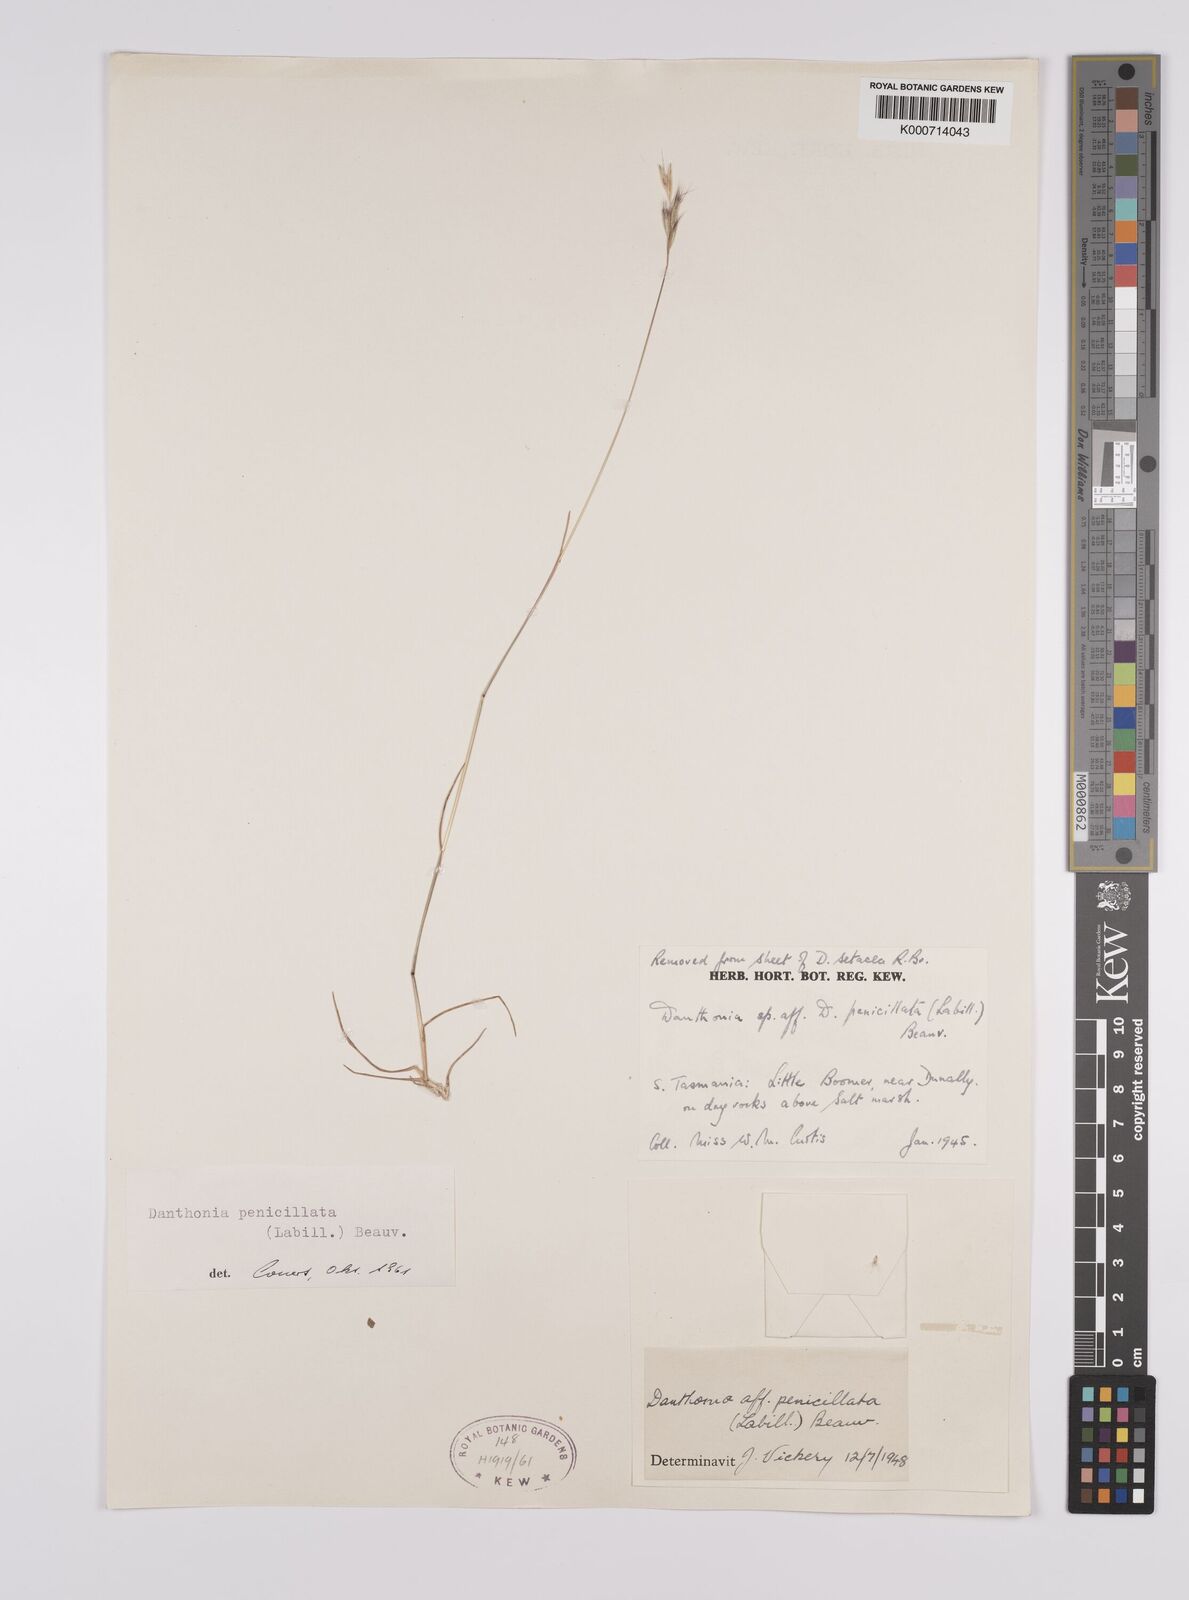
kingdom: Plantae
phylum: Tracheophyta
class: Liliopsida
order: Poales
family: Poaceae
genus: Rytidosperma
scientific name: Rytidosperma penicillatum
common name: Hairy wallaby grass
